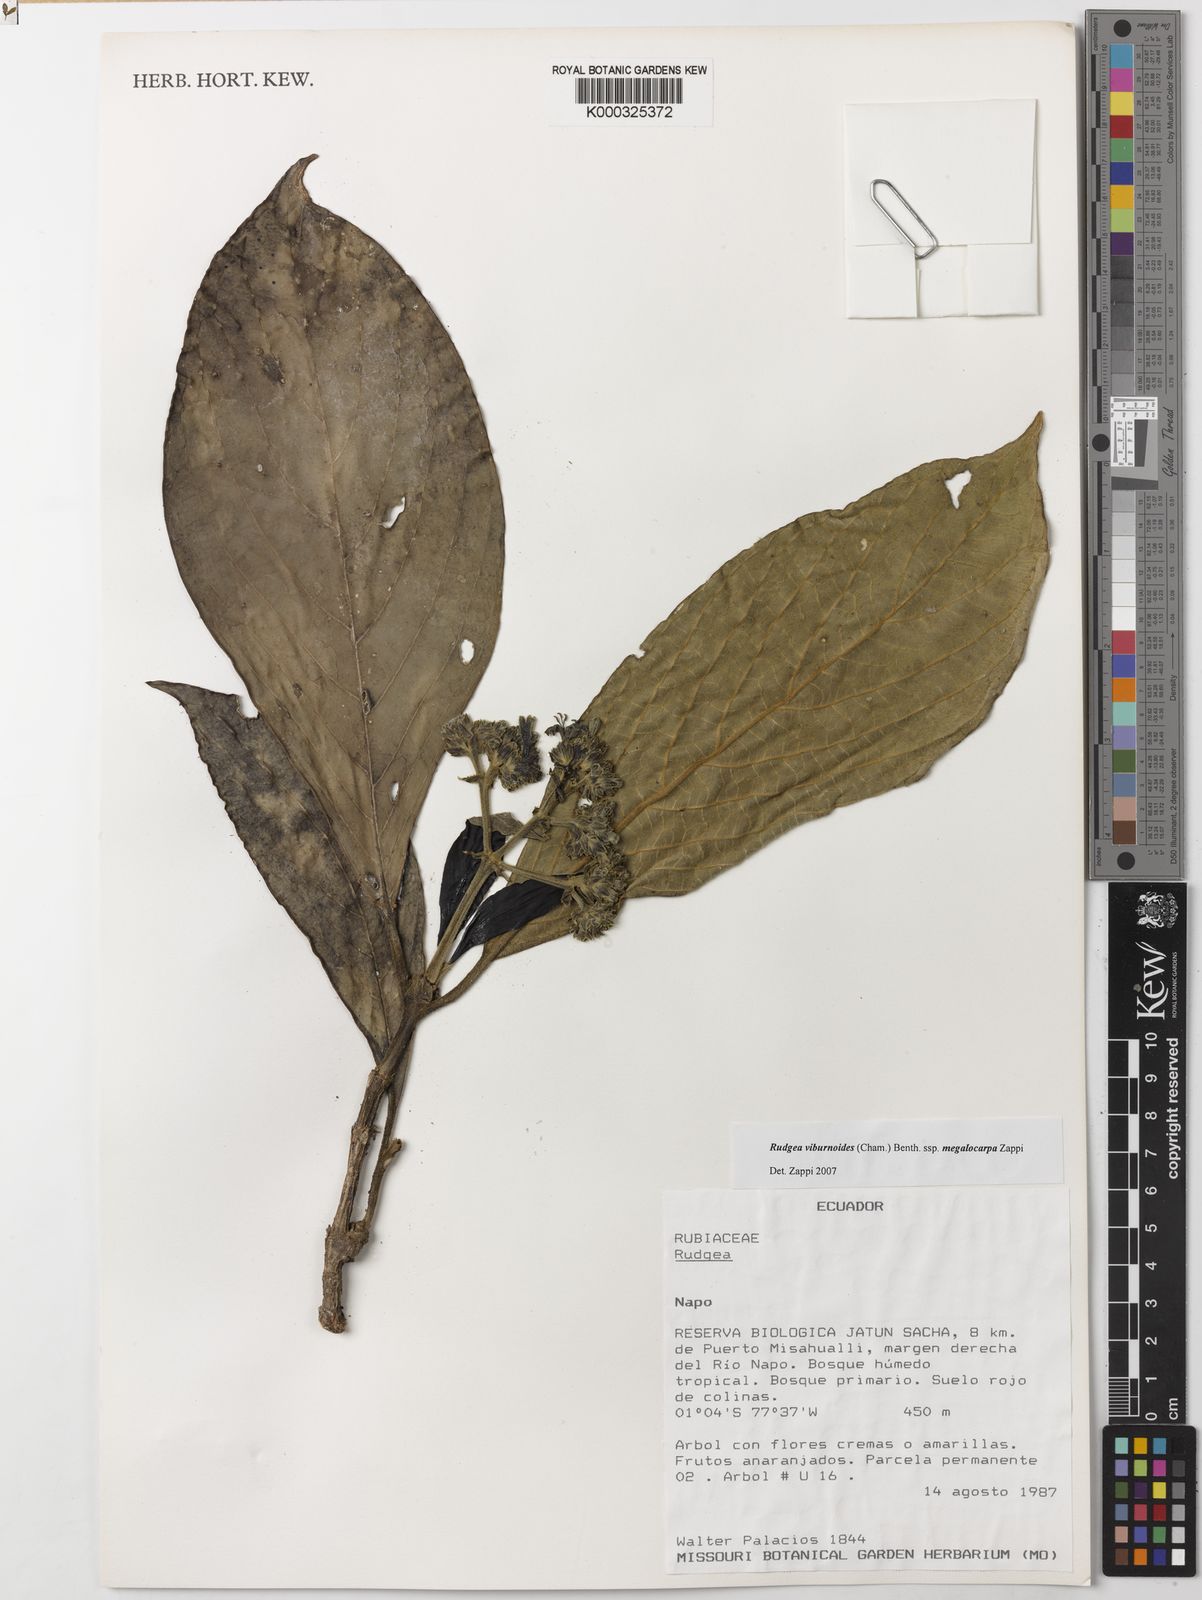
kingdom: Plantae
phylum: Tracheophyta
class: Magnoliopsida
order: Gentianales
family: Rubiaceae
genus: Rudgea
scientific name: Rudgea viburnoides
